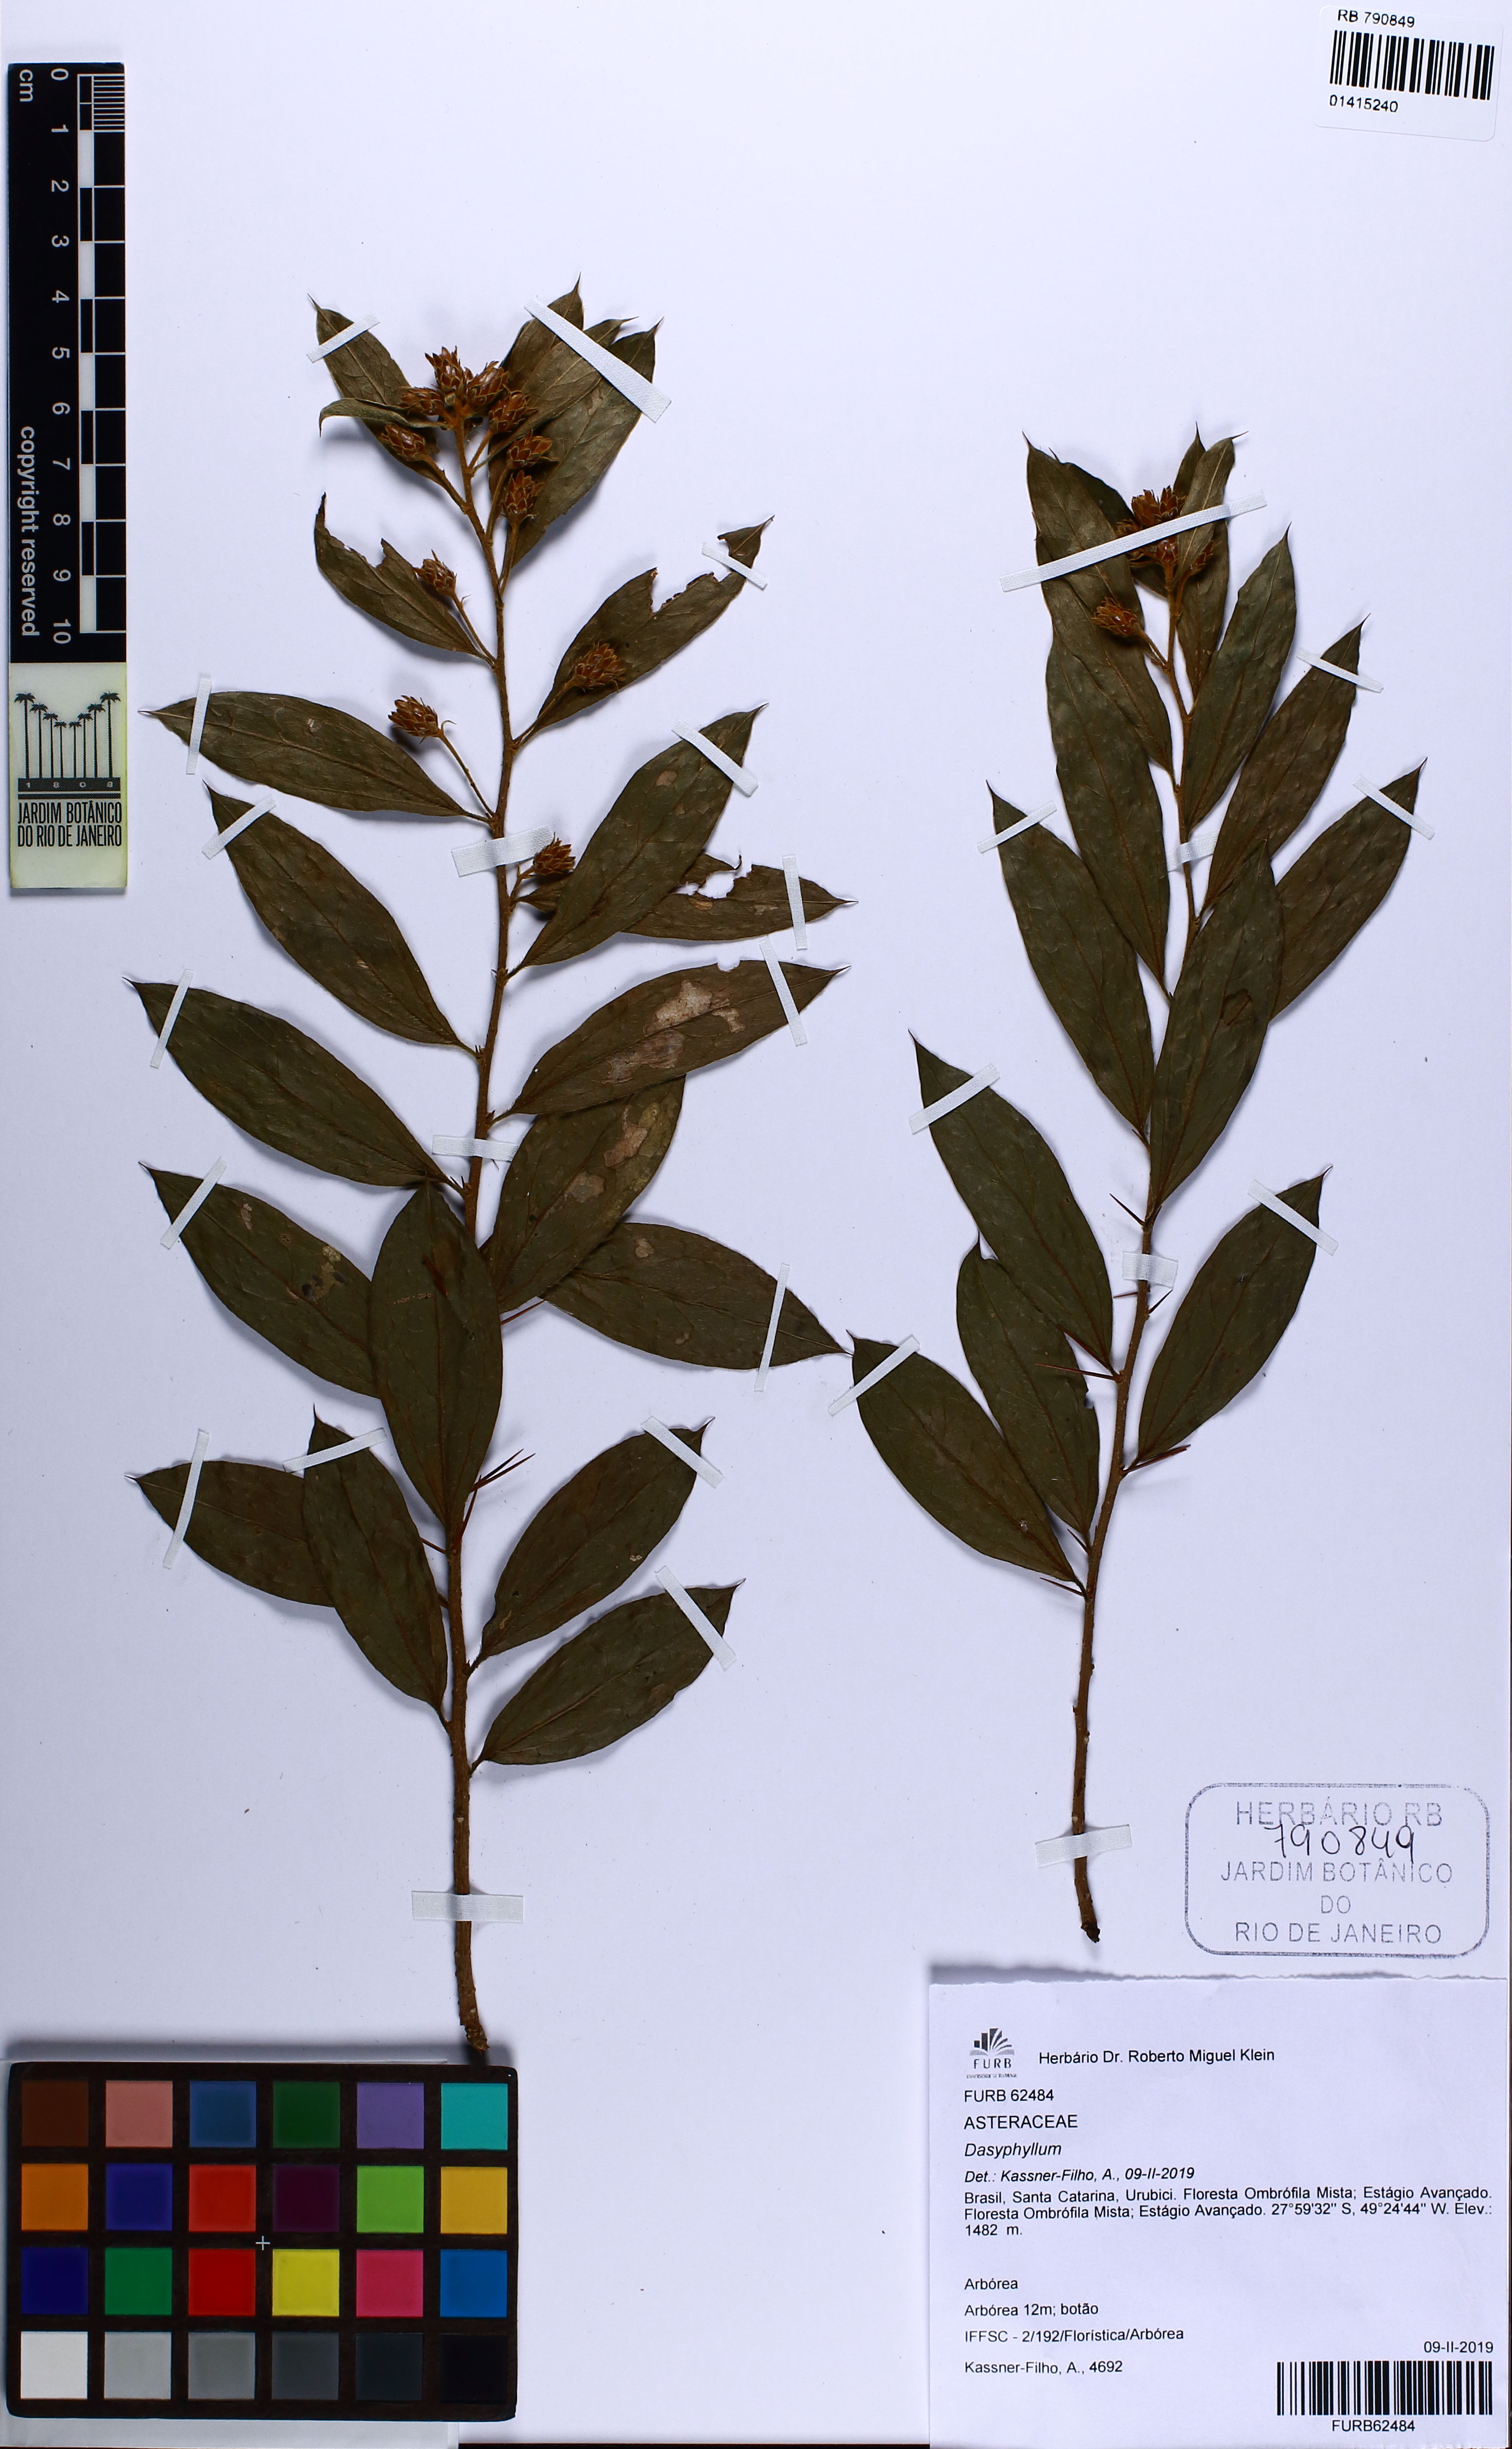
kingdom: Plantae
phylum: Tracheophyta
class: Magnoliopsida
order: Asterales
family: Asteraceae
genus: Dasyphyllum
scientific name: Dasyphyllum
